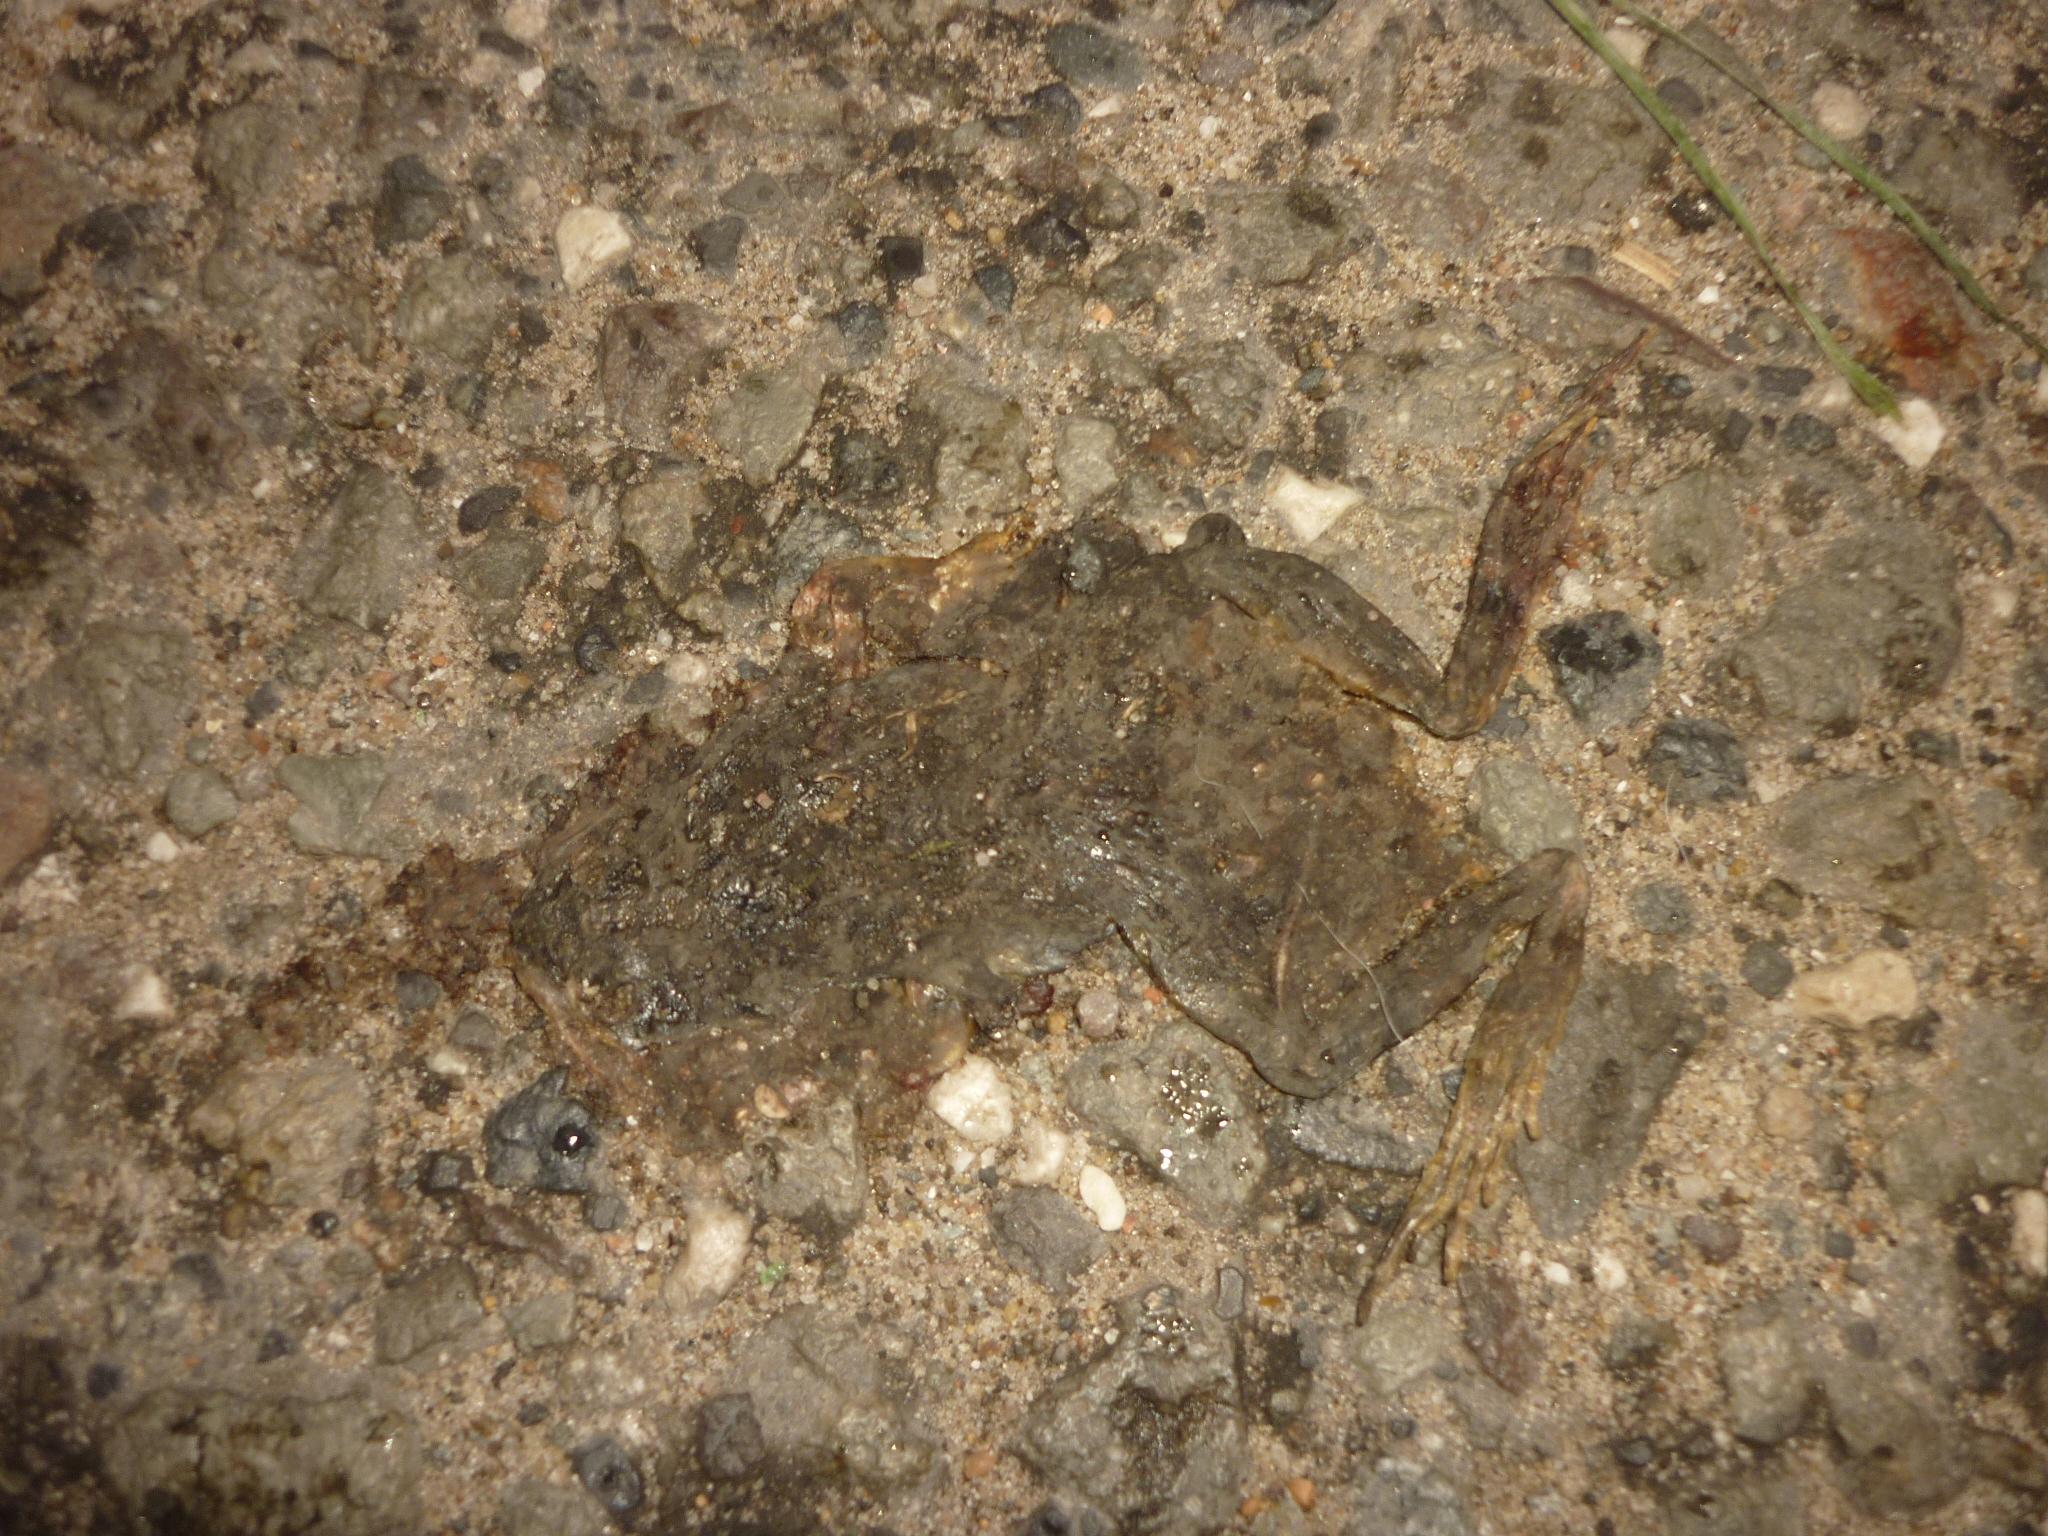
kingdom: Animalia
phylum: Chordata
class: Amphibia
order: Anura
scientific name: Anura
